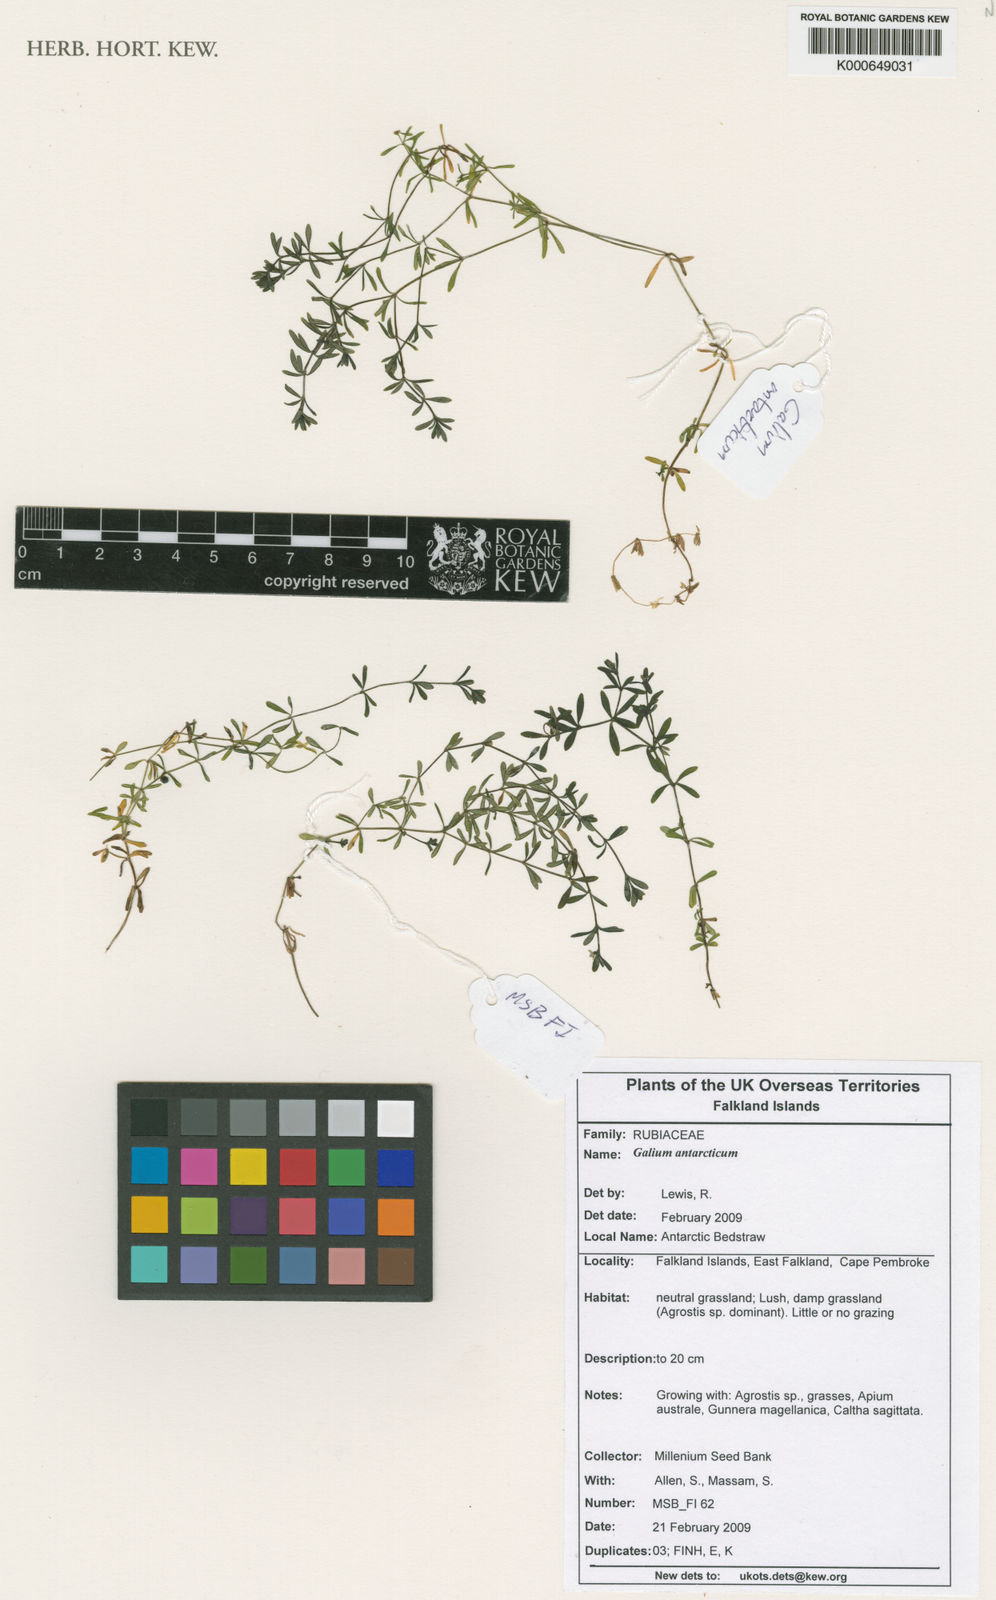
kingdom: Plantae
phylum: Tracheophyta
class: Magnoliopsida
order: Gentianales
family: Rubiaceae
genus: Galium
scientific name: Galium antarcticum
